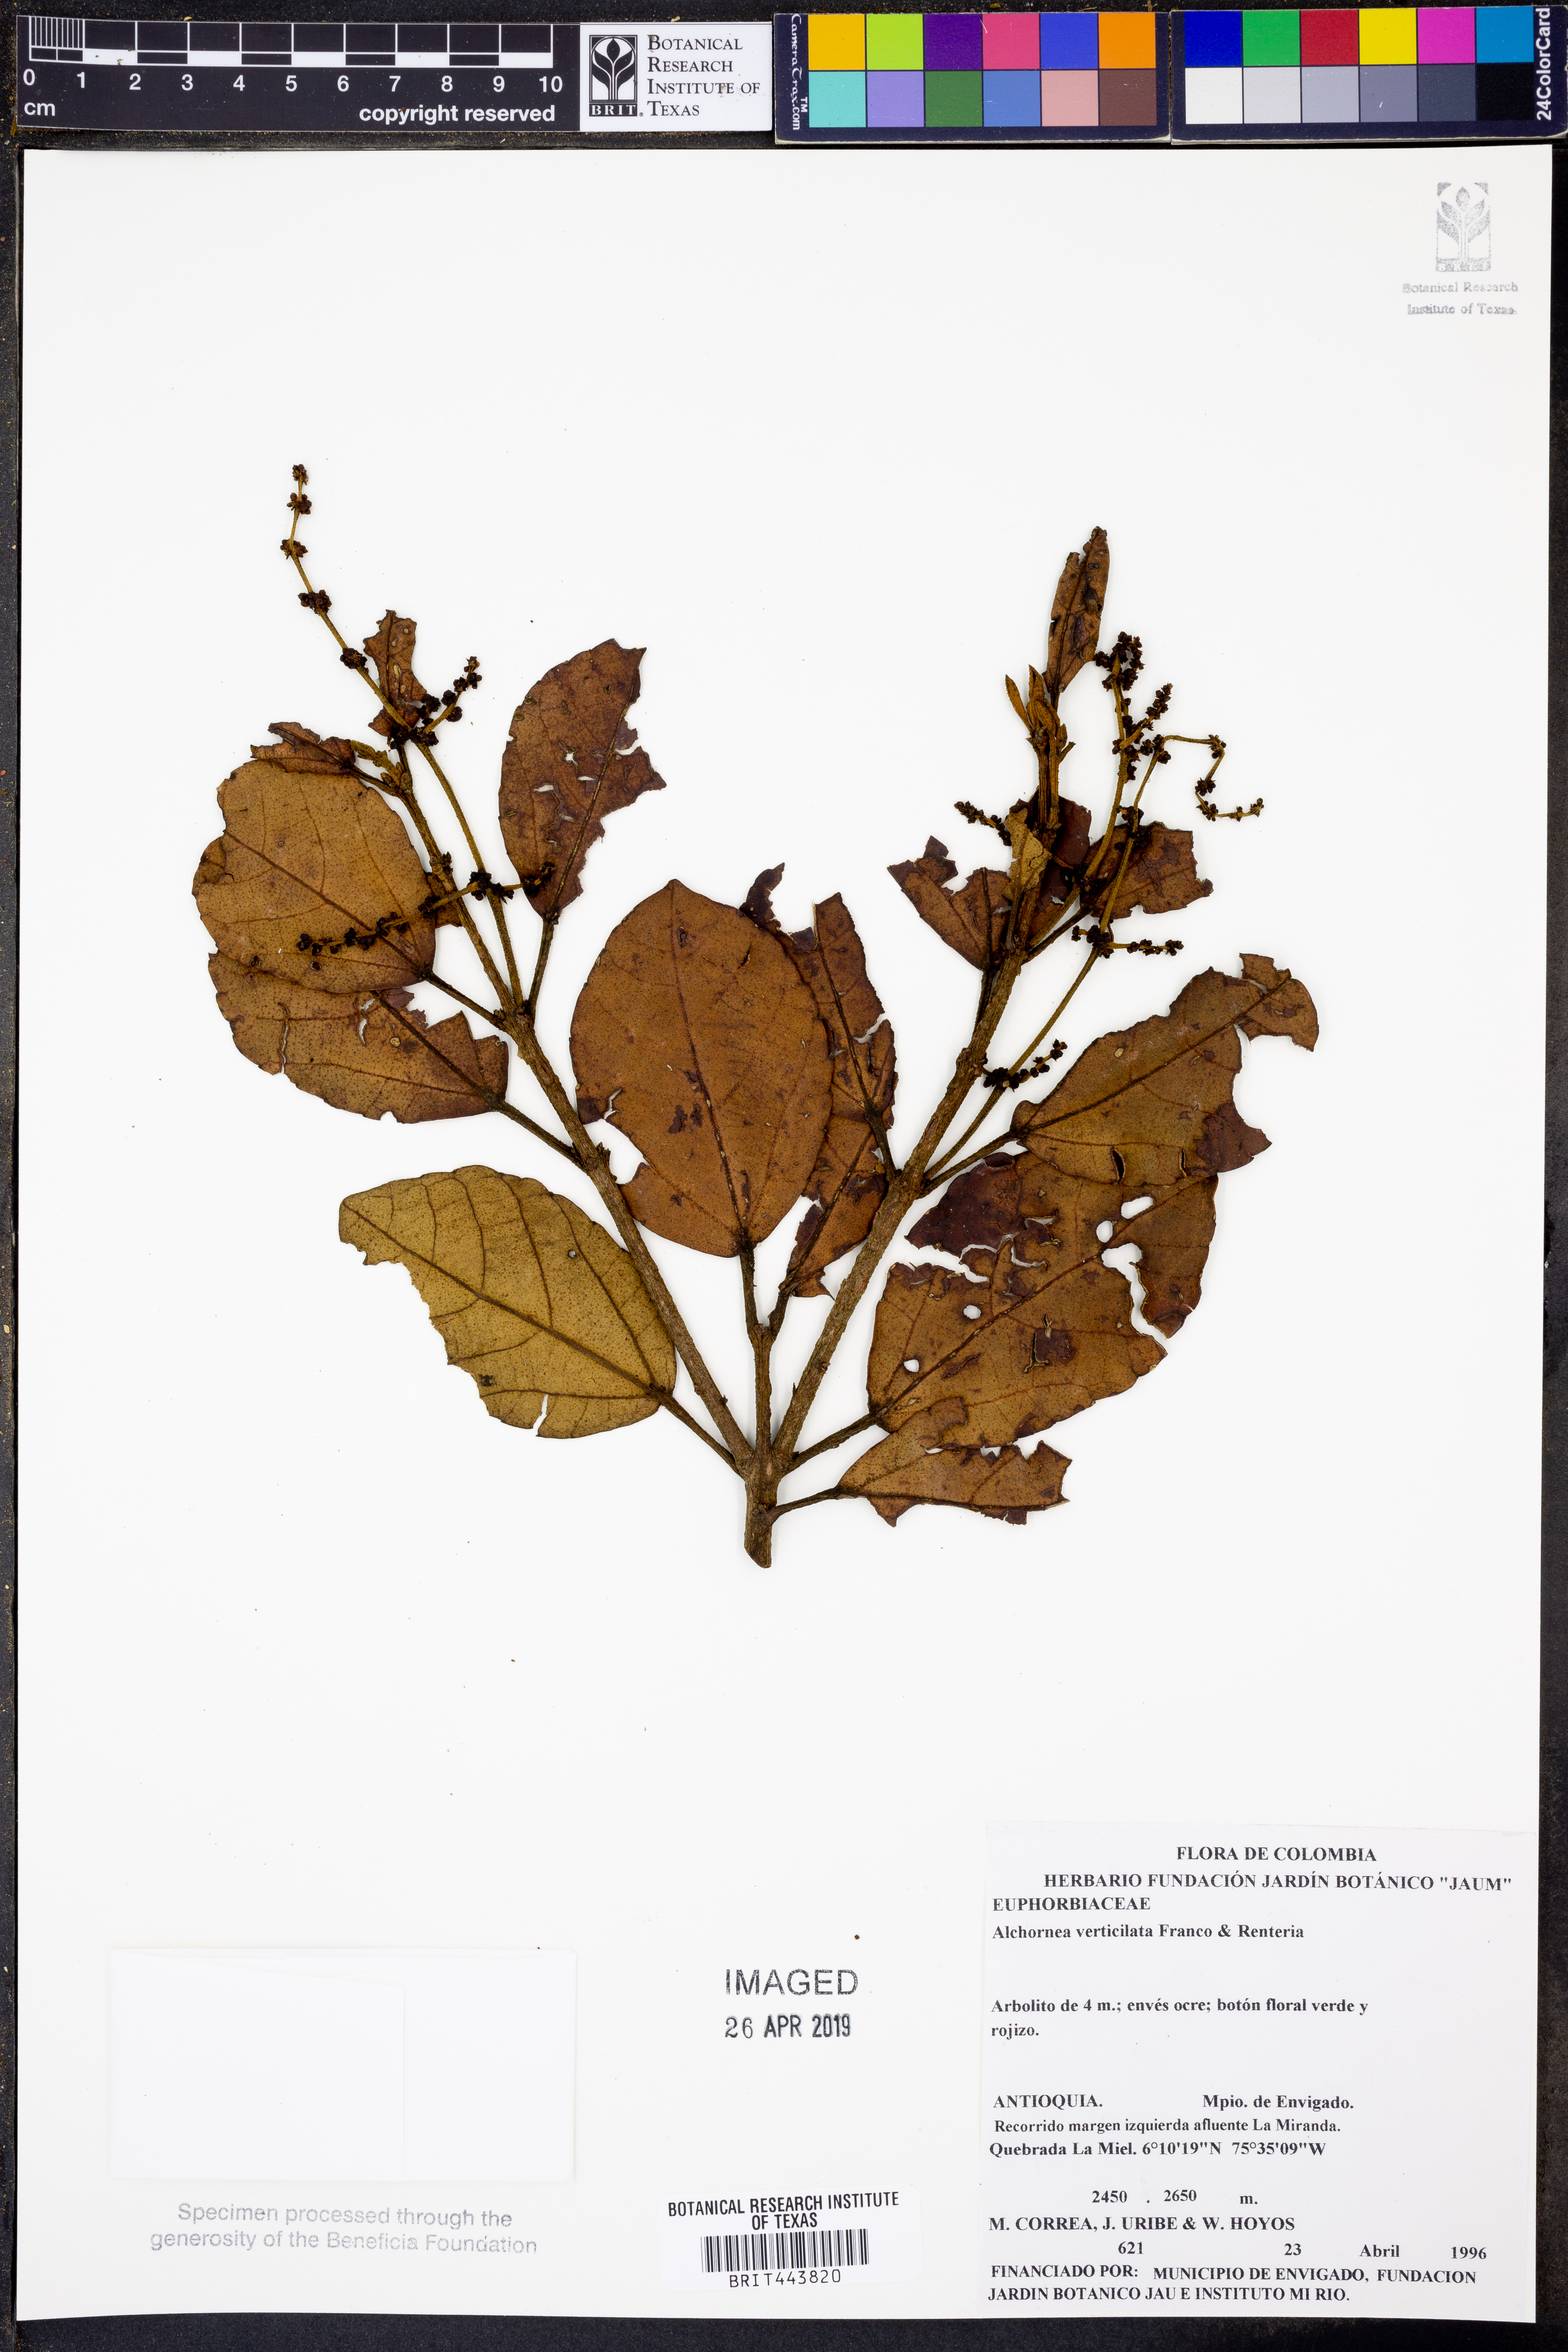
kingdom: Plantae
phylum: Tracheophyta
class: Magnoliopsida
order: Malpighiales
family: Euphorbiaceae
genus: Alchornea
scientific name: Alchornea verticillata
